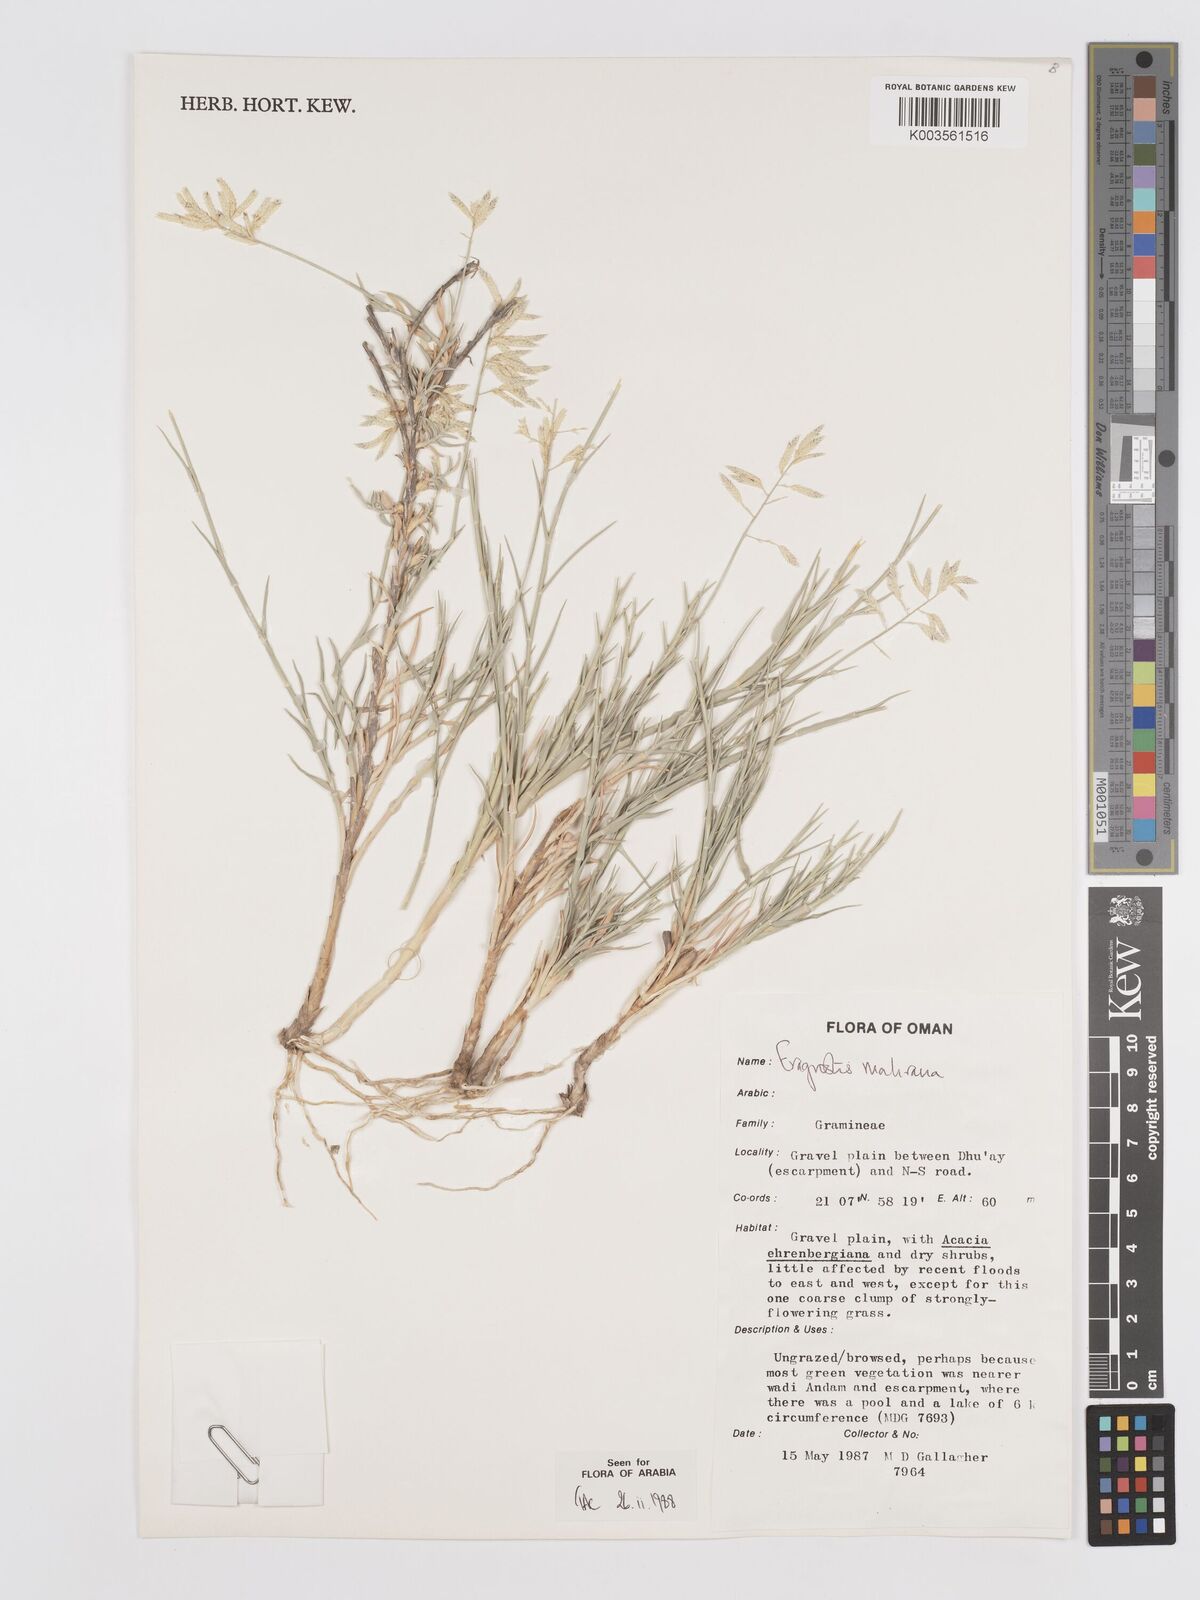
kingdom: Plantae
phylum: Tracheophyta
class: Liliopsida
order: Poales
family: Poaceae
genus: Eragrostis
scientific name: Eragrostis mahrana
